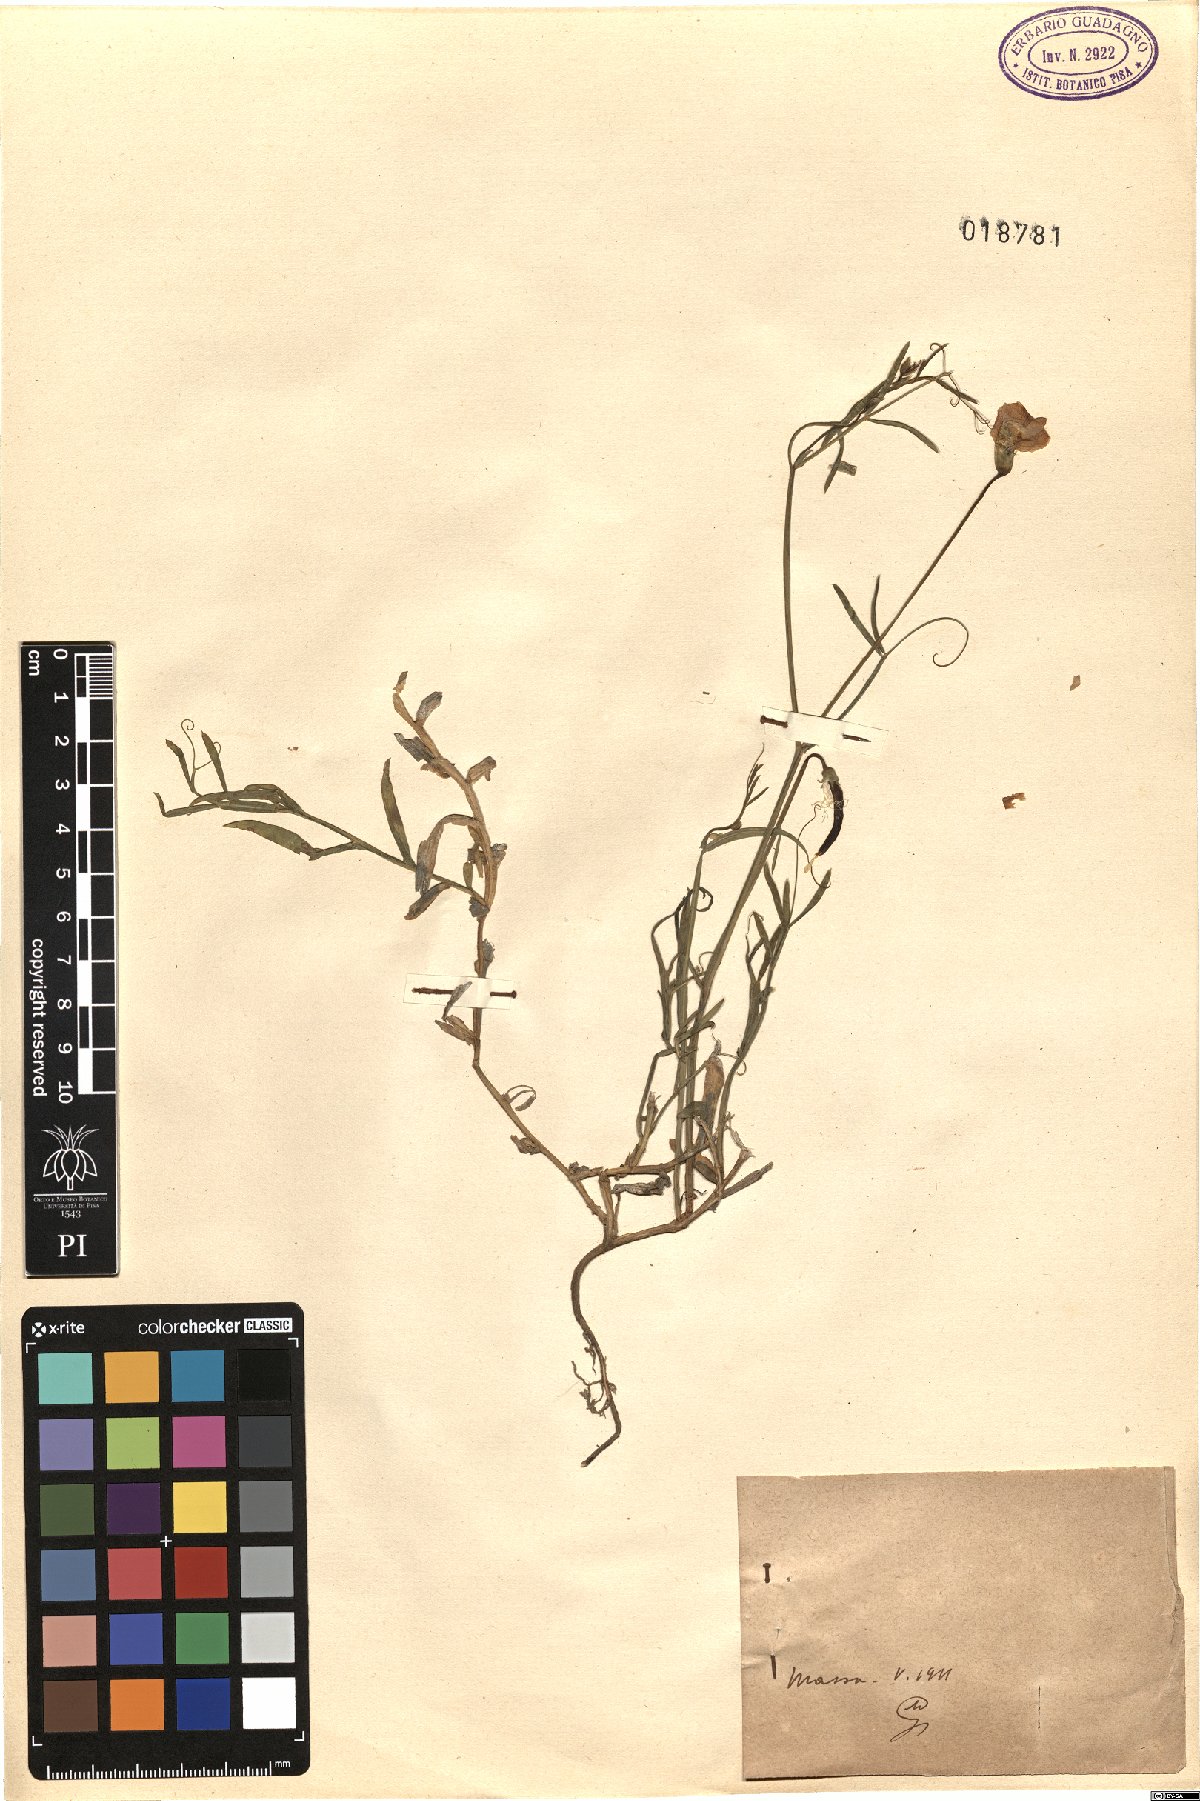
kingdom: Plantae
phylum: Tracheophyta
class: Magnoliopsida
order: Fabales
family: Fabaceae
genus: Lathyrus
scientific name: Lathyrus
